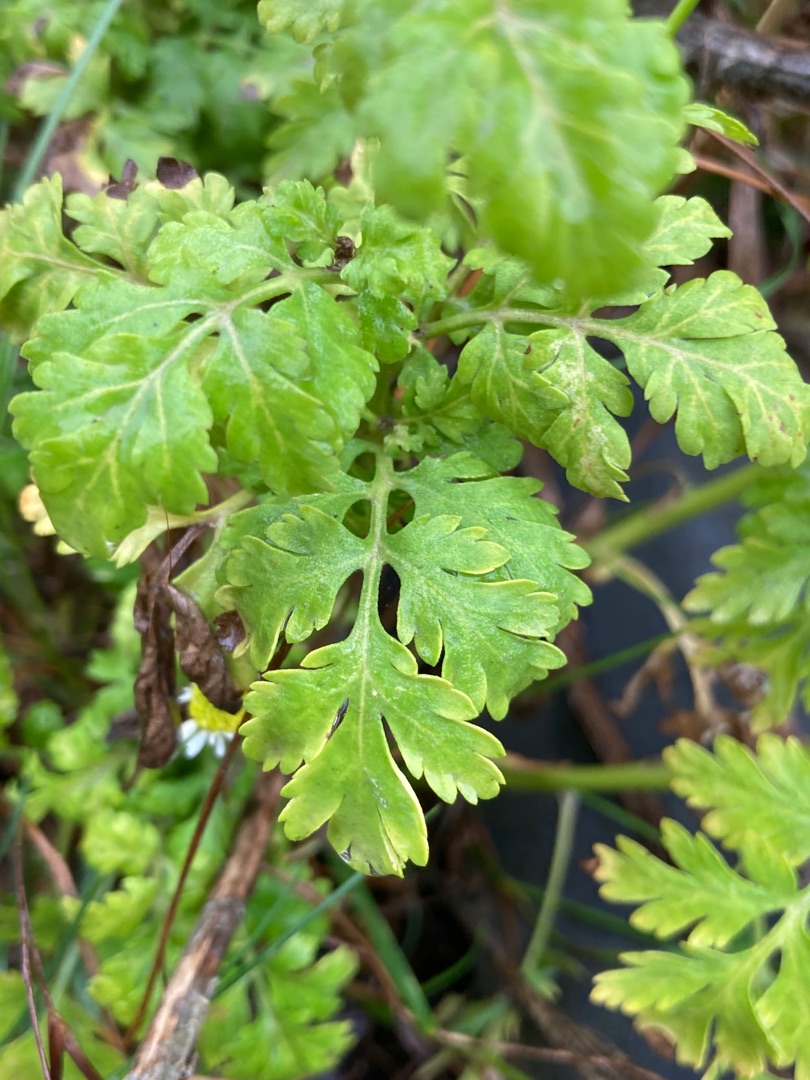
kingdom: Plantae
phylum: Tracheophyta
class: Magnoliopsida
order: Asterales
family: Asteraceae
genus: Tanacetum
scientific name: Tanacetum parthenium
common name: Matrem
